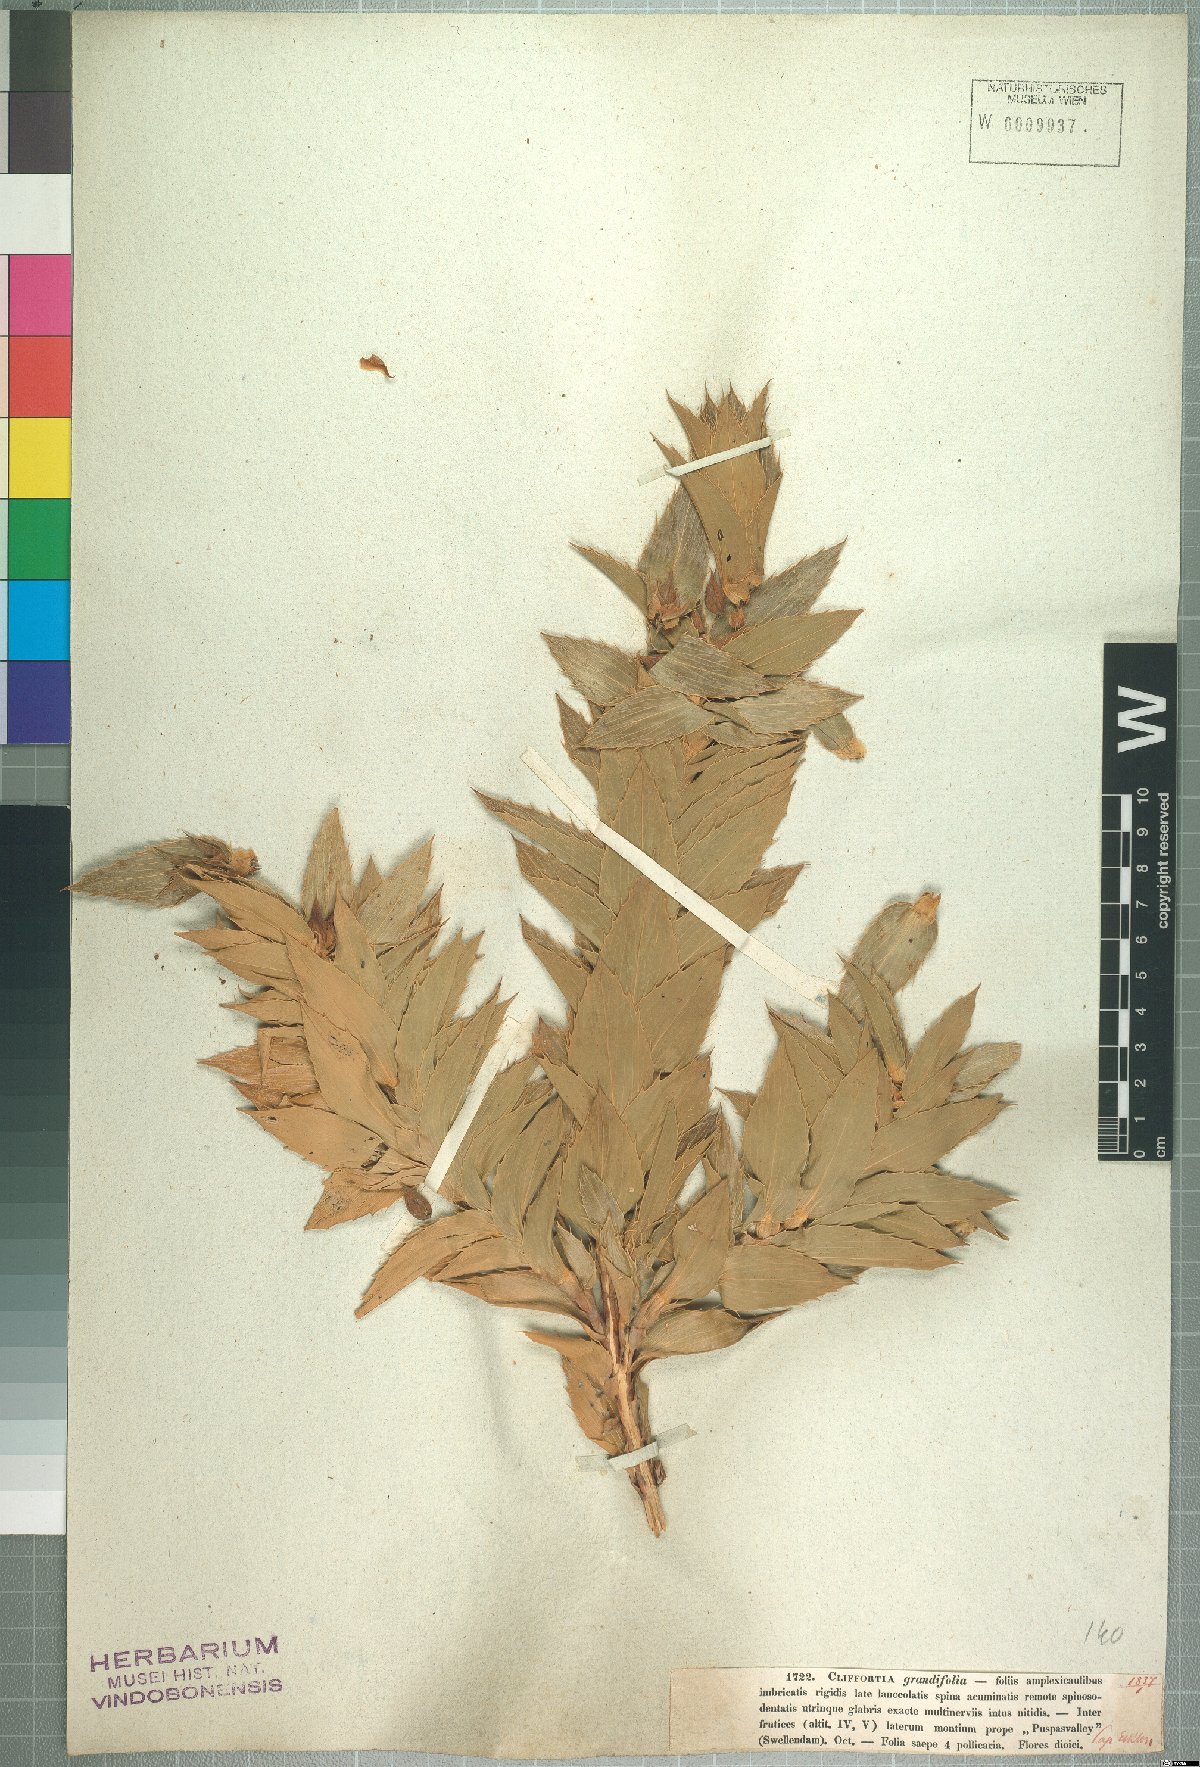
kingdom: Plantae
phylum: Tracheophyta
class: Magnoliopsida
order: Rosales
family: Rosaceae
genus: Cliffortia
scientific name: Cliffortia grandifolia
